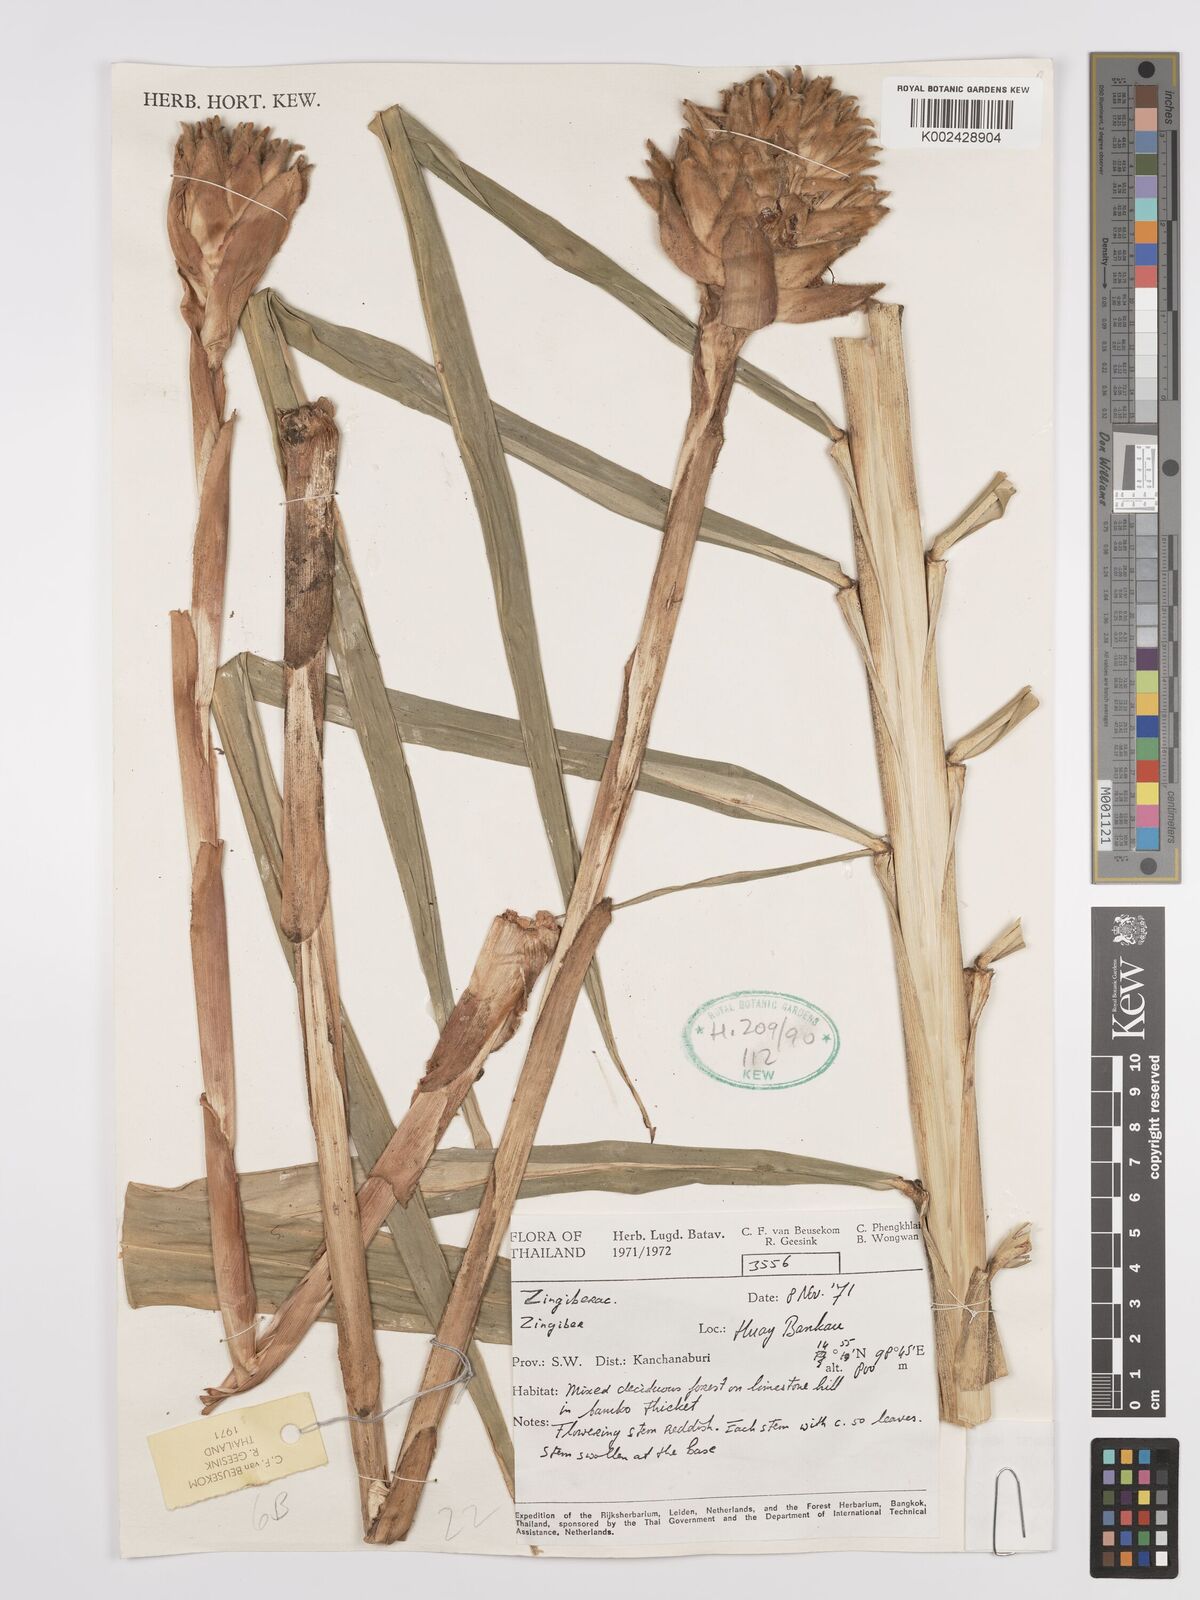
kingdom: Plantae
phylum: Tracheophyta
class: Liliopsida
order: Zingiberales
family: Zingiberaceae
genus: Zingiber
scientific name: Zingiber gramineum
